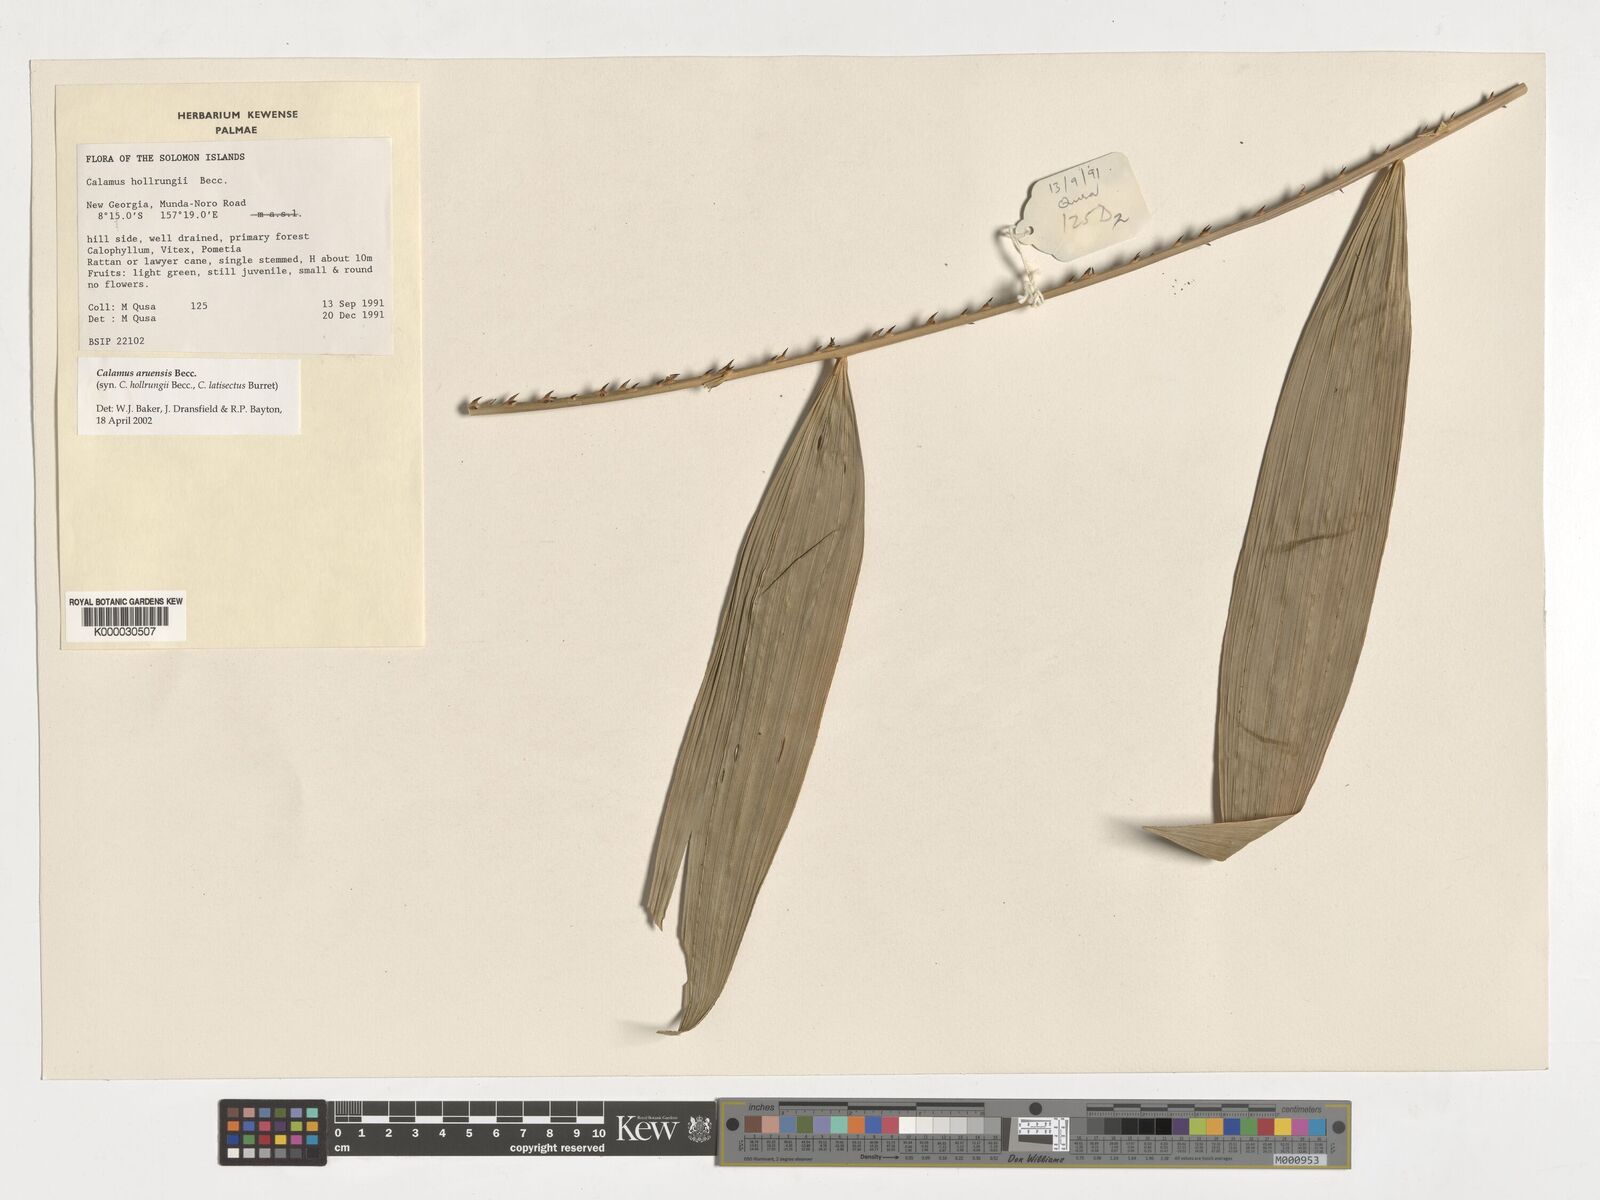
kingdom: Plantae
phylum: Tracheophyta
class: Liliopsida
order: Arecales
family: Arecaceae
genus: Calamus
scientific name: Calamus aruensis
